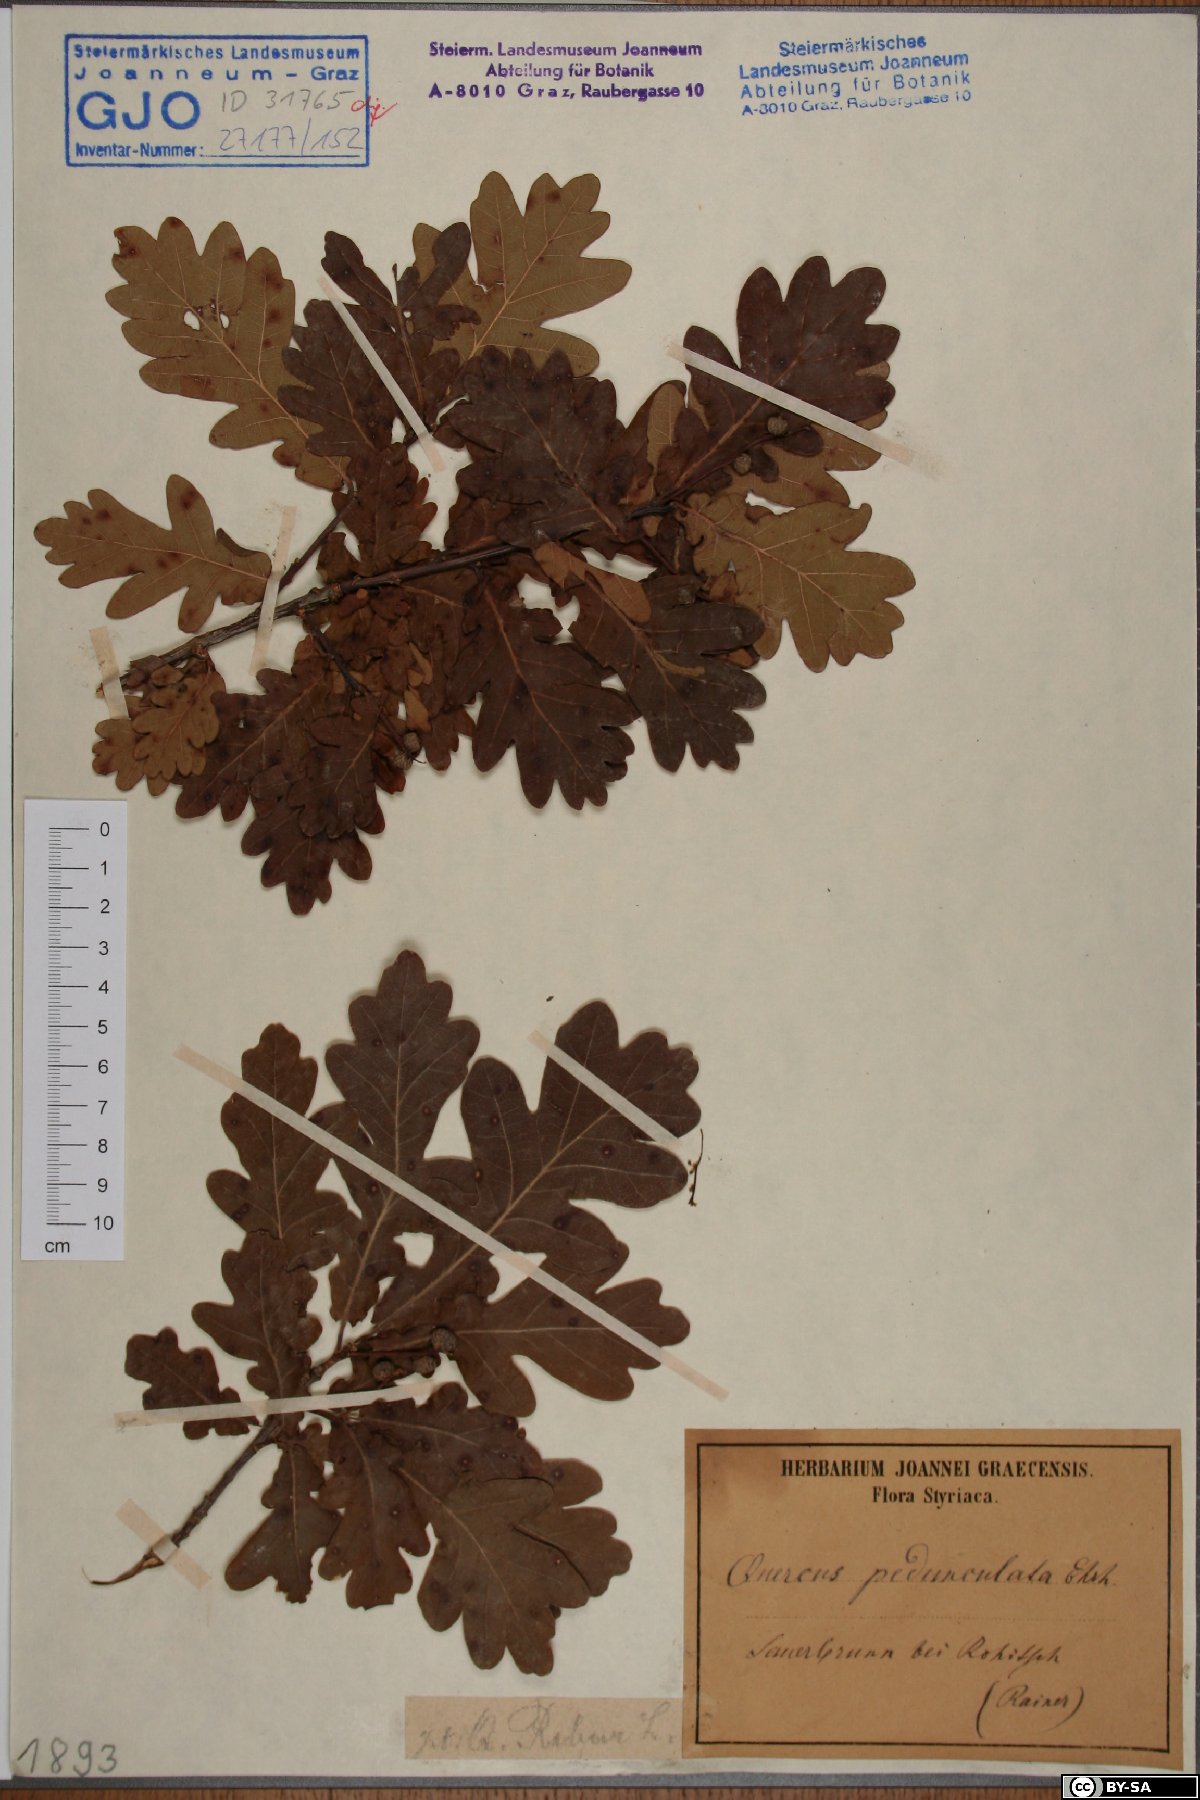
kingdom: Plantae
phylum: Tracheophyta
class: Magnoliopsida
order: Fagales
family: Fagaceae
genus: Quercus
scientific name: Quercus robur
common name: Pedunculate oak
